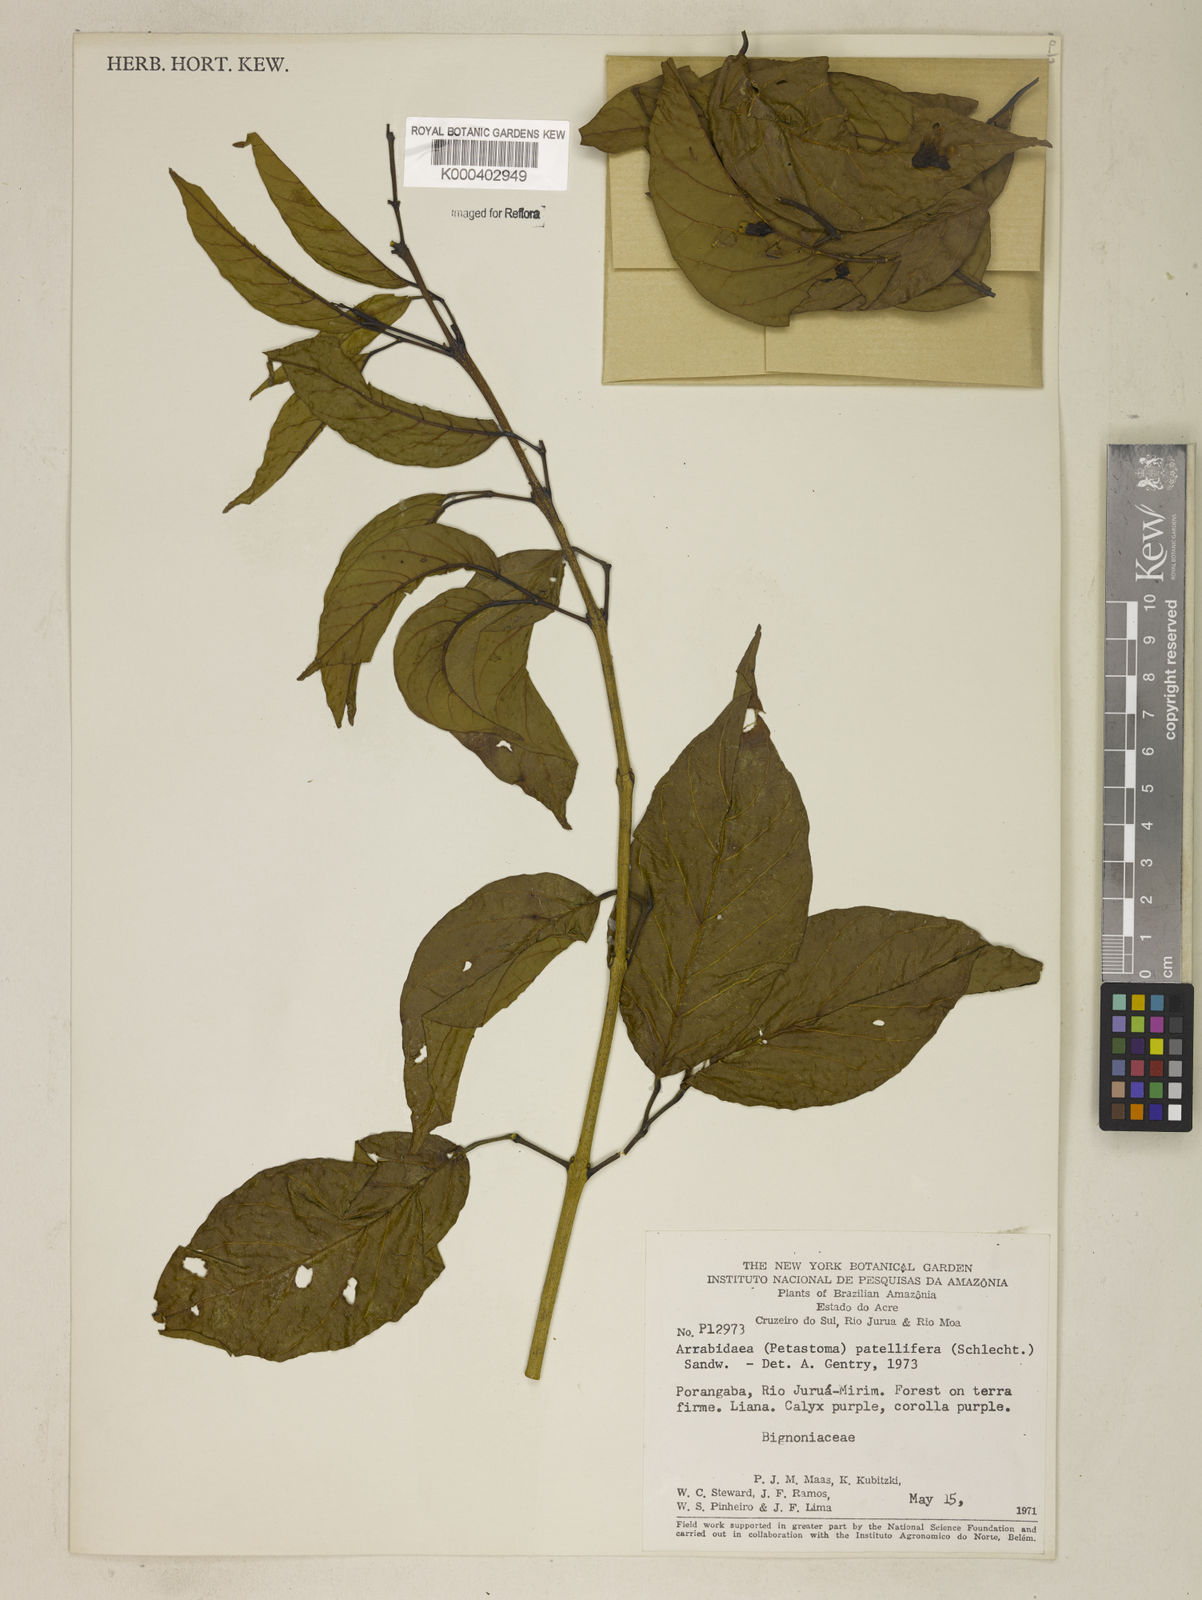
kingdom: Plantae
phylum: Tracheophyta
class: Magnoliopsida
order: Lamiales
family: Bignoniaceae
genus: Fridericia
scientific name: Fridericia patellifera
